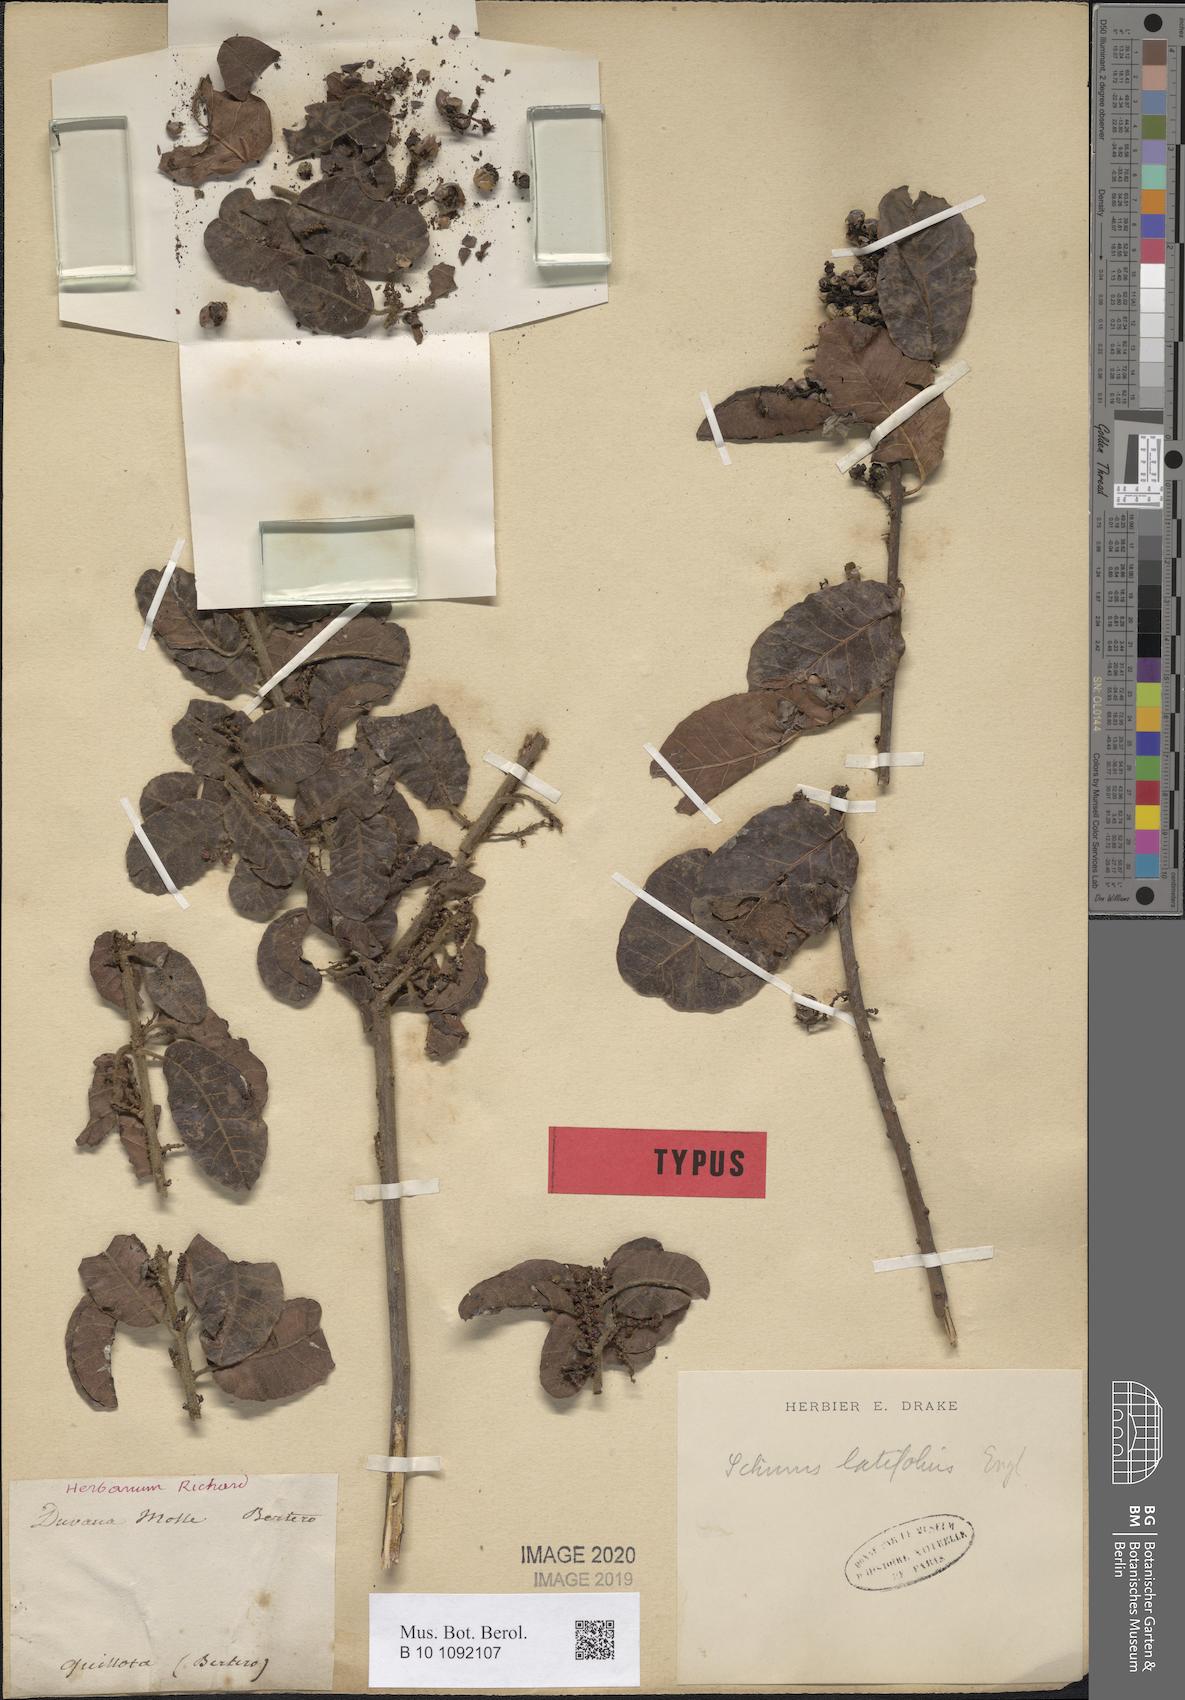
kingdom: Plantae
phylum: Tracheophyta
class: Magnoliopsida
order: Sapindales
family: Anacardiaceae
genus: Schinus
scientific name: Schinus latifolia
